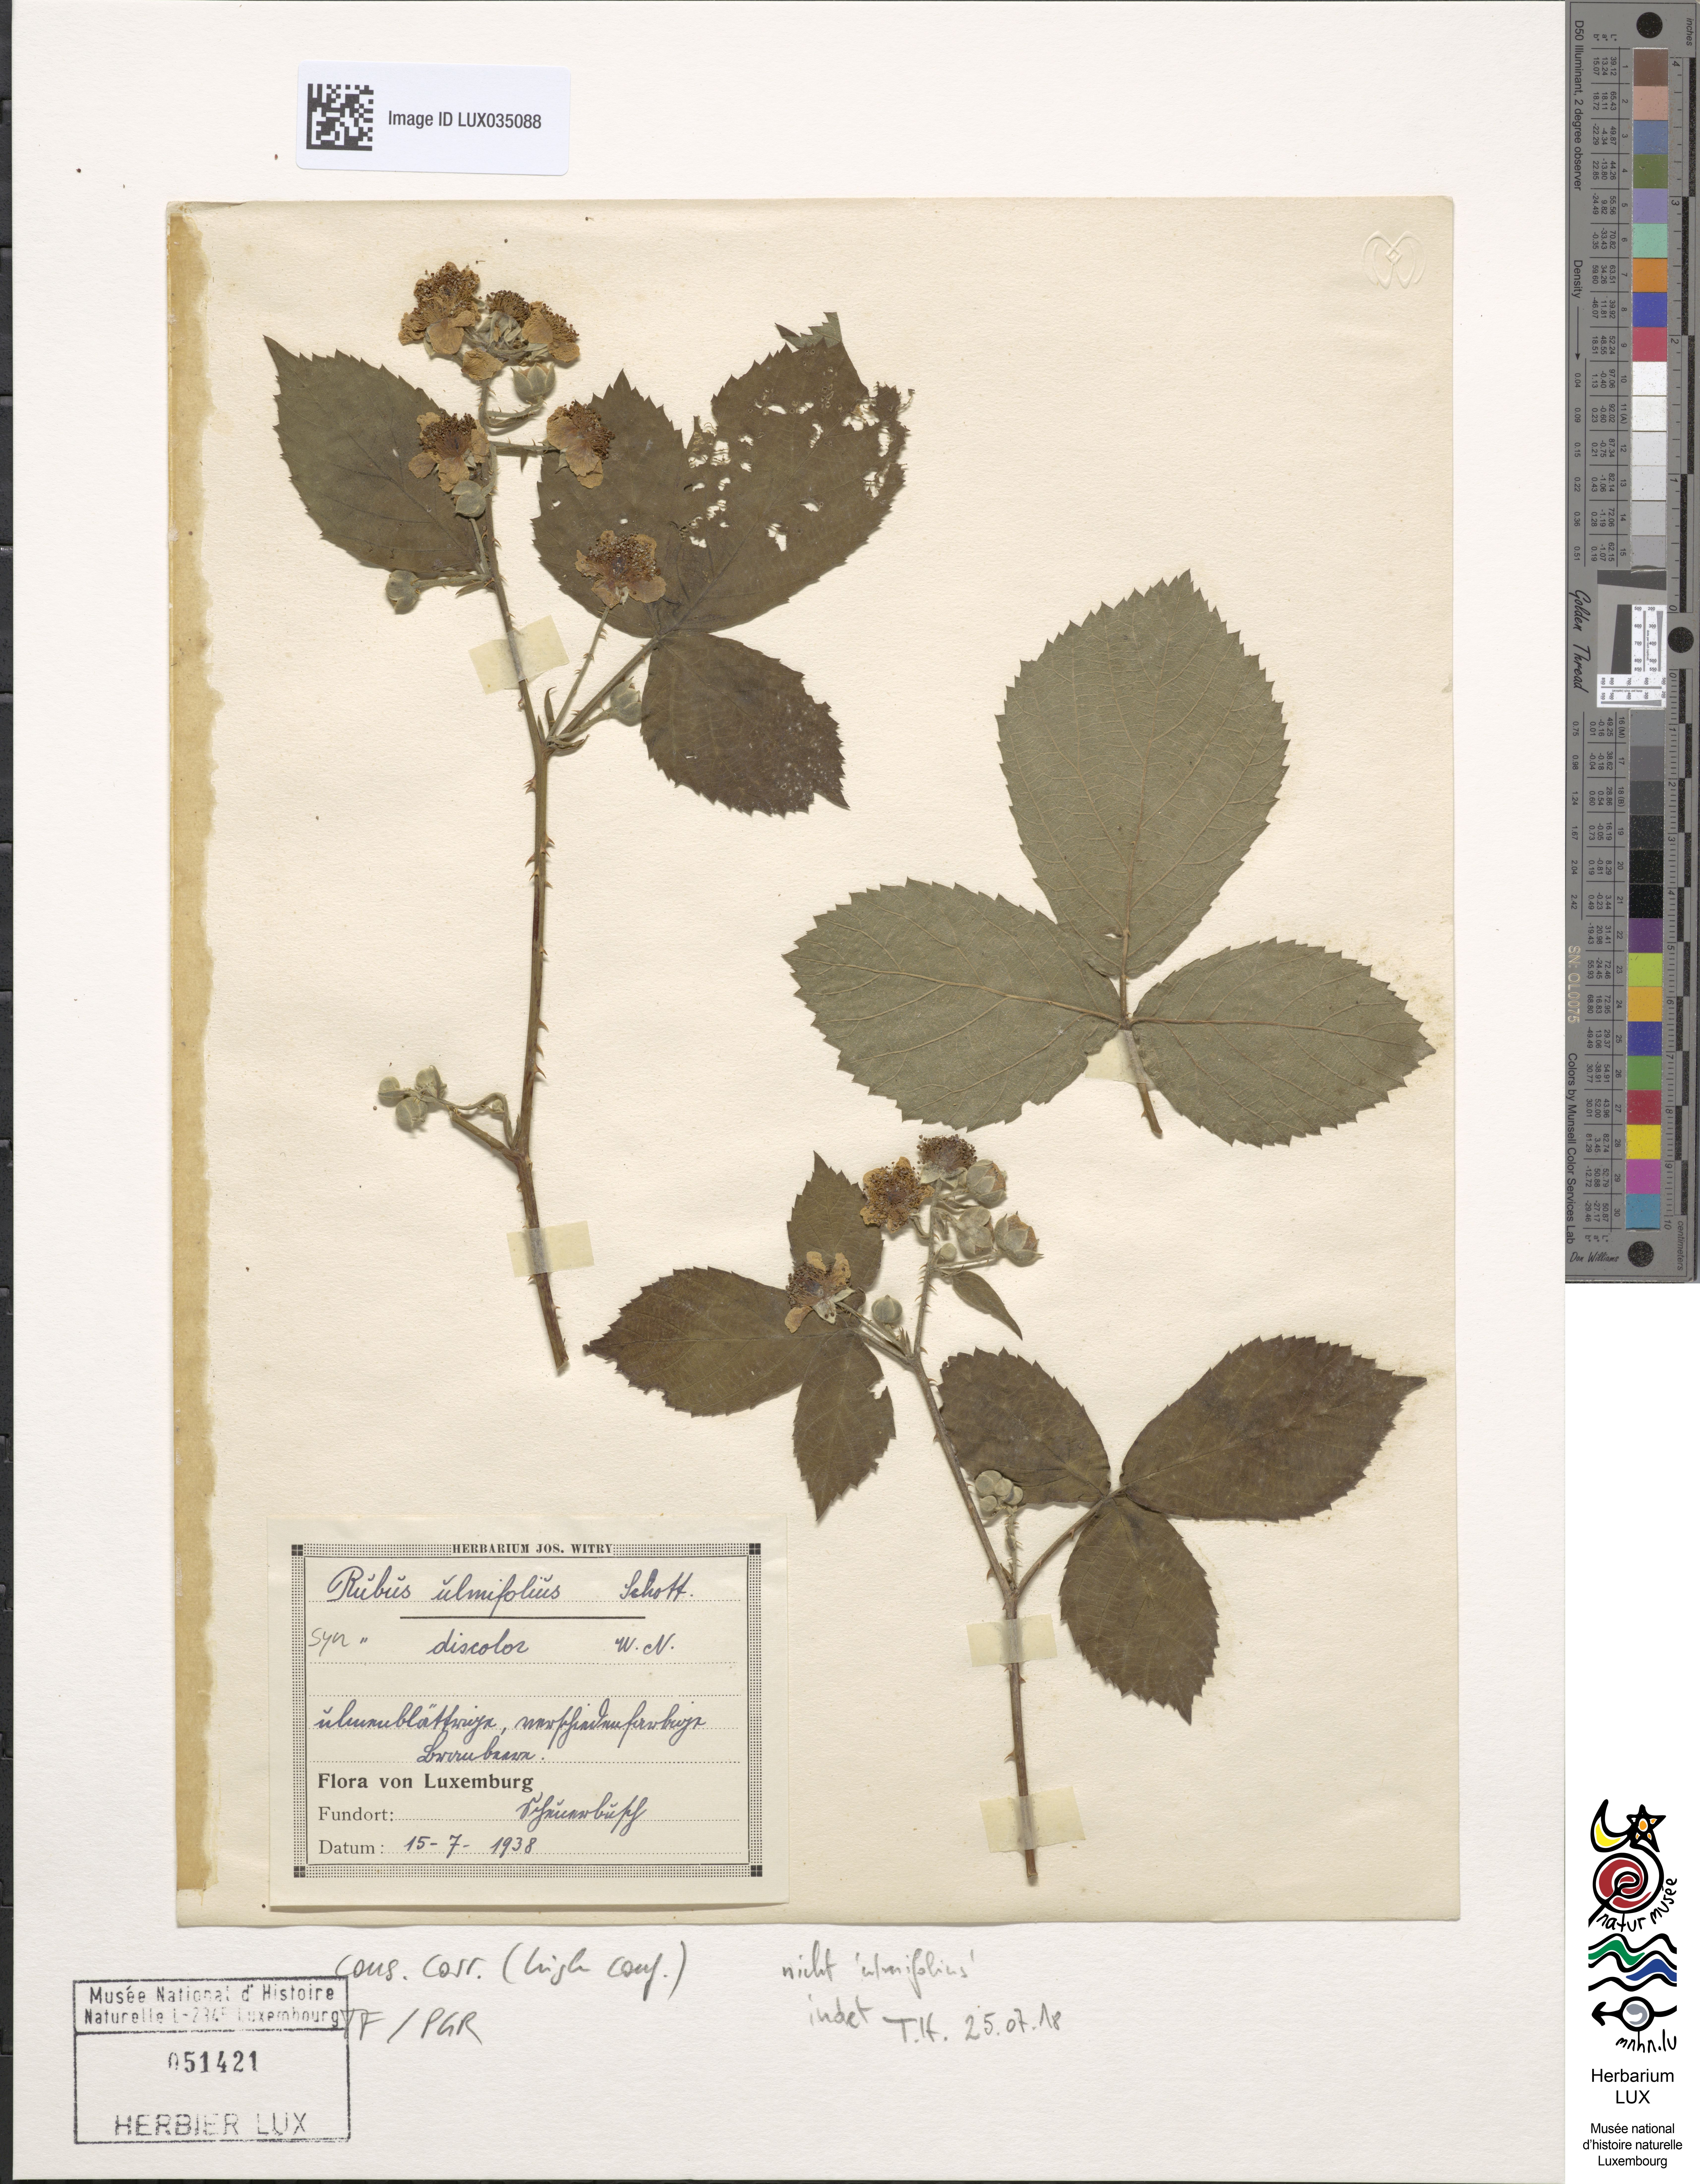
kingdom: Plantae
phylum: Tracheophyta
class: Magnoliopsida
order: Rosales
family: Rosaceae
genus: Rubus
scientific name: Rubus
